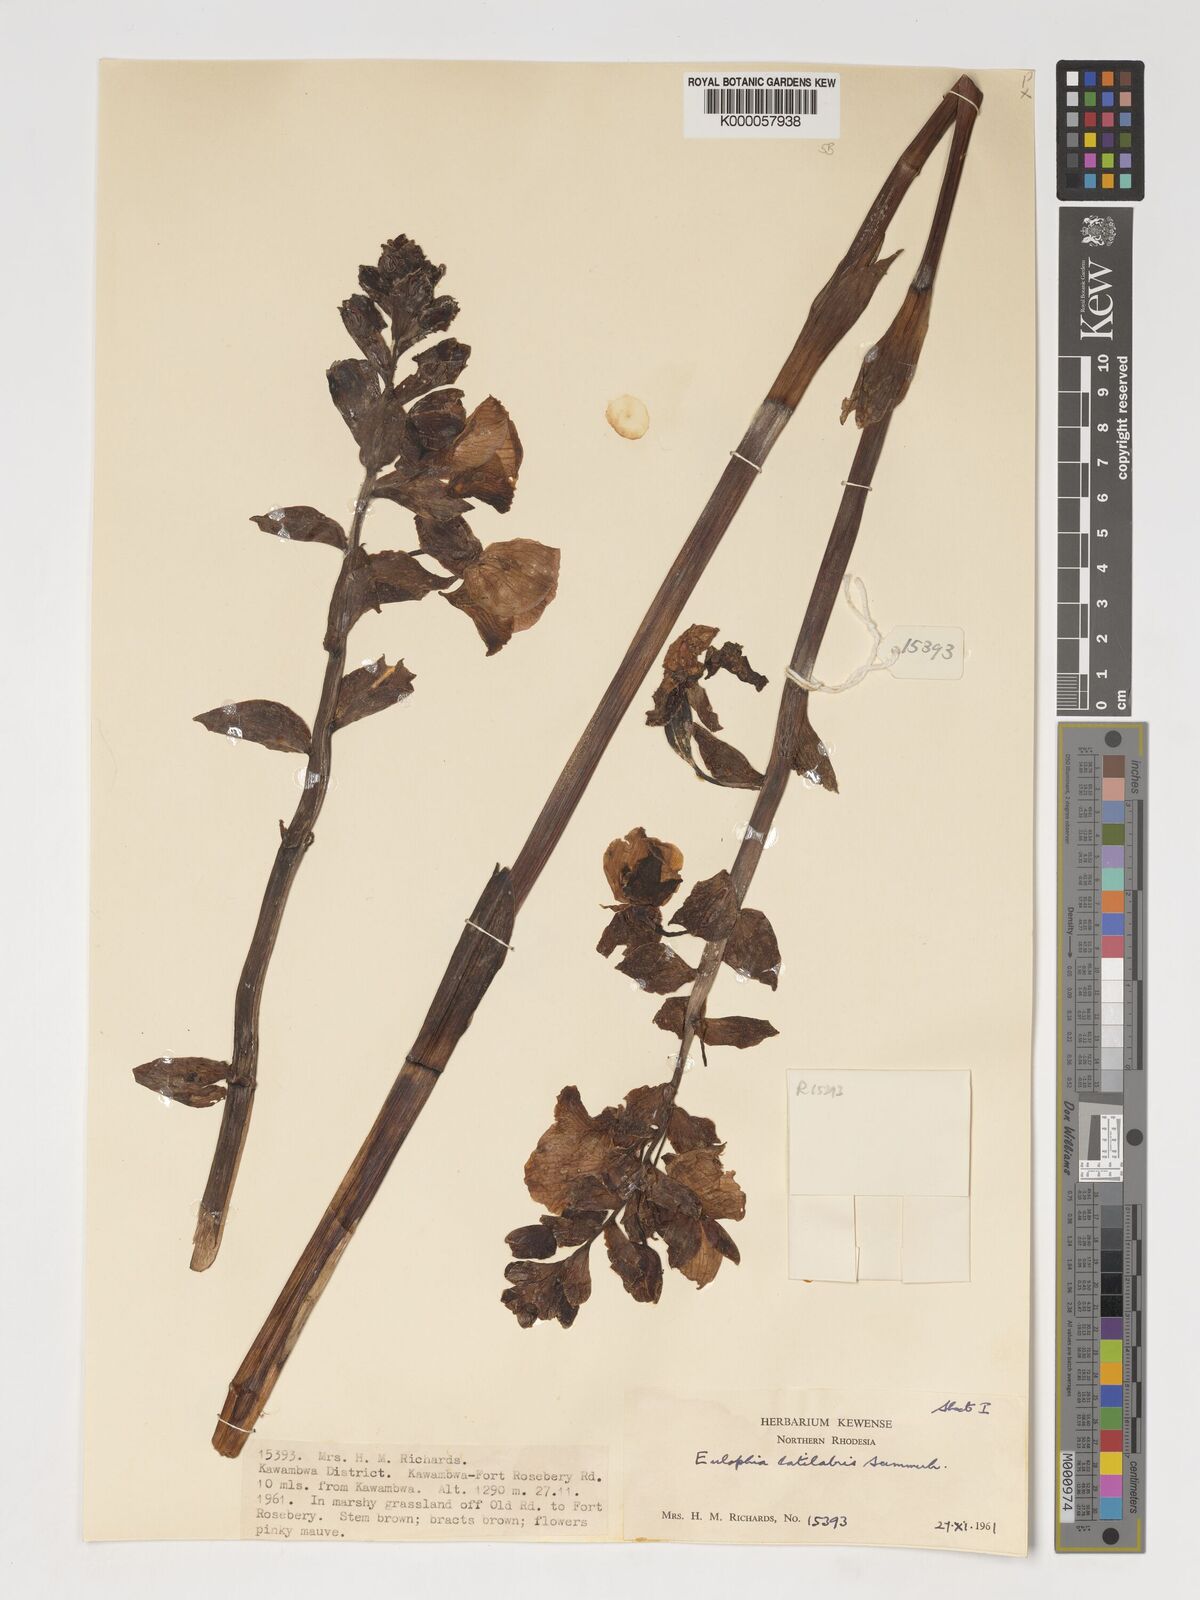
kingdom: Plantae
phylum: Tracheophyta
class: Liliopsida
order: Asparagales
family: Orchidaceae
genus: Eulophia
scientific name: Eulophia latilabris
